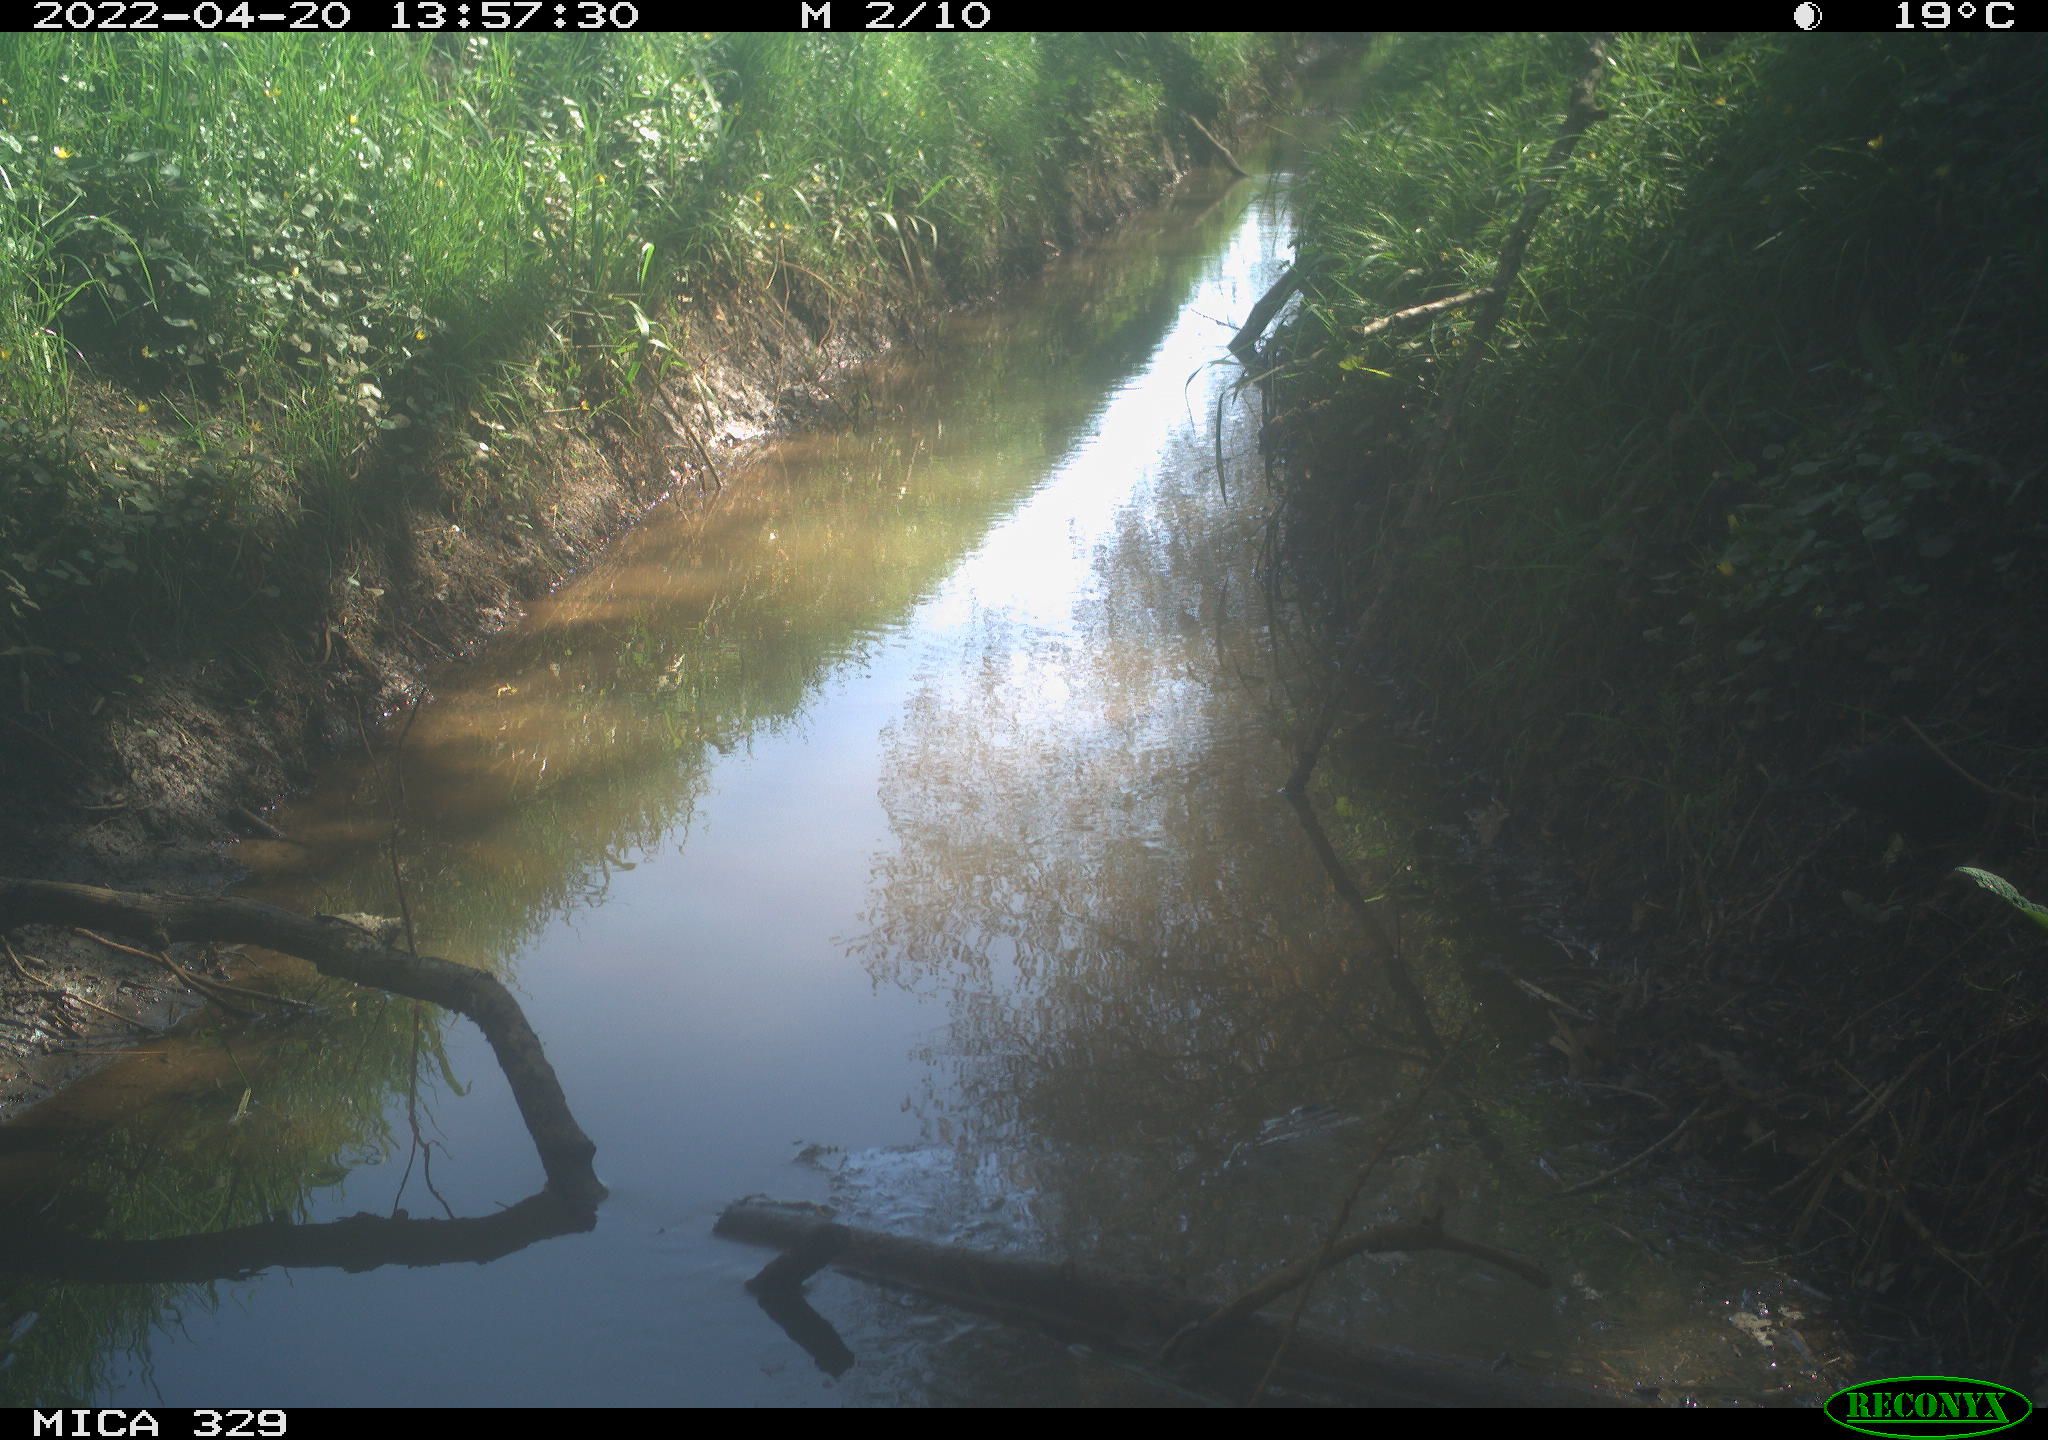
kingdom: Animalia
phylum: Chordata
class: Aves
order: Passeriformes
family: Turdidae
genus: Turdus
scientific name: Turdus merula
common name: Common blackbird
